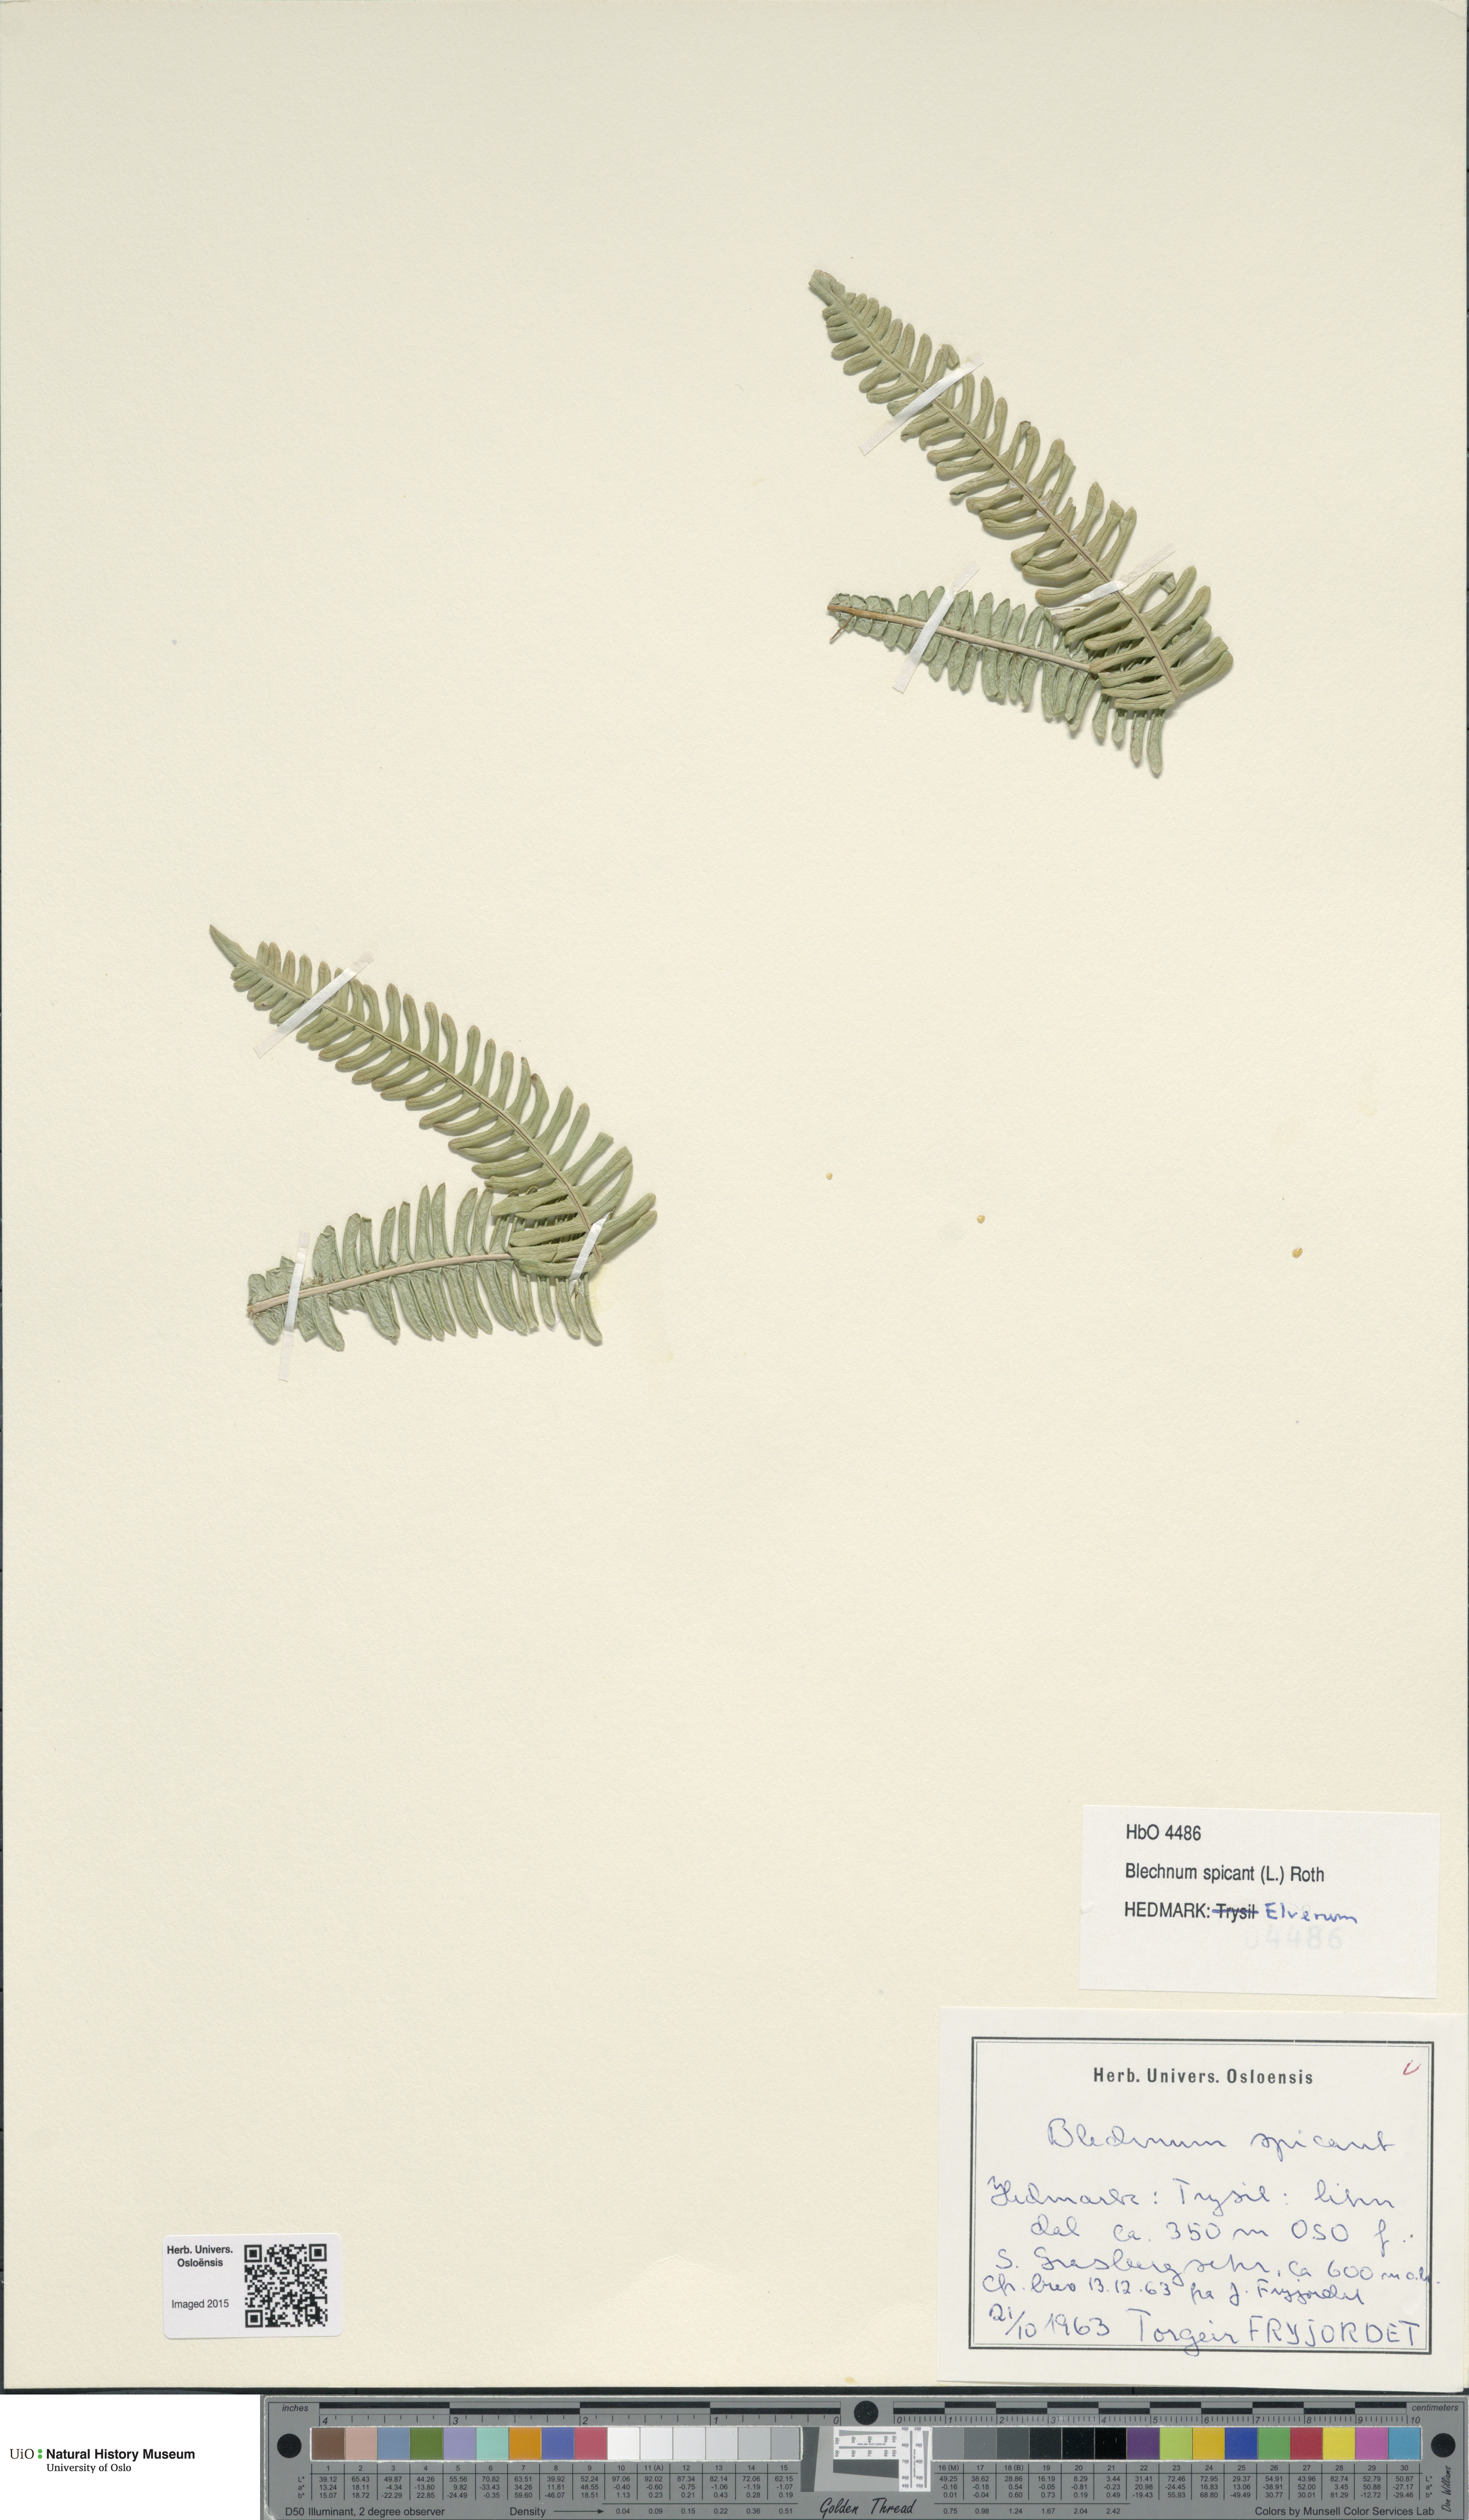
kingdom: Plantae
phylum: Tracheophyta
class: Polypodiopsida
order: Polypodiales
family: Blechnaceae
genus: Struthiopteris
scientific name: Struthiopteris spicant
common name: Deer fern
